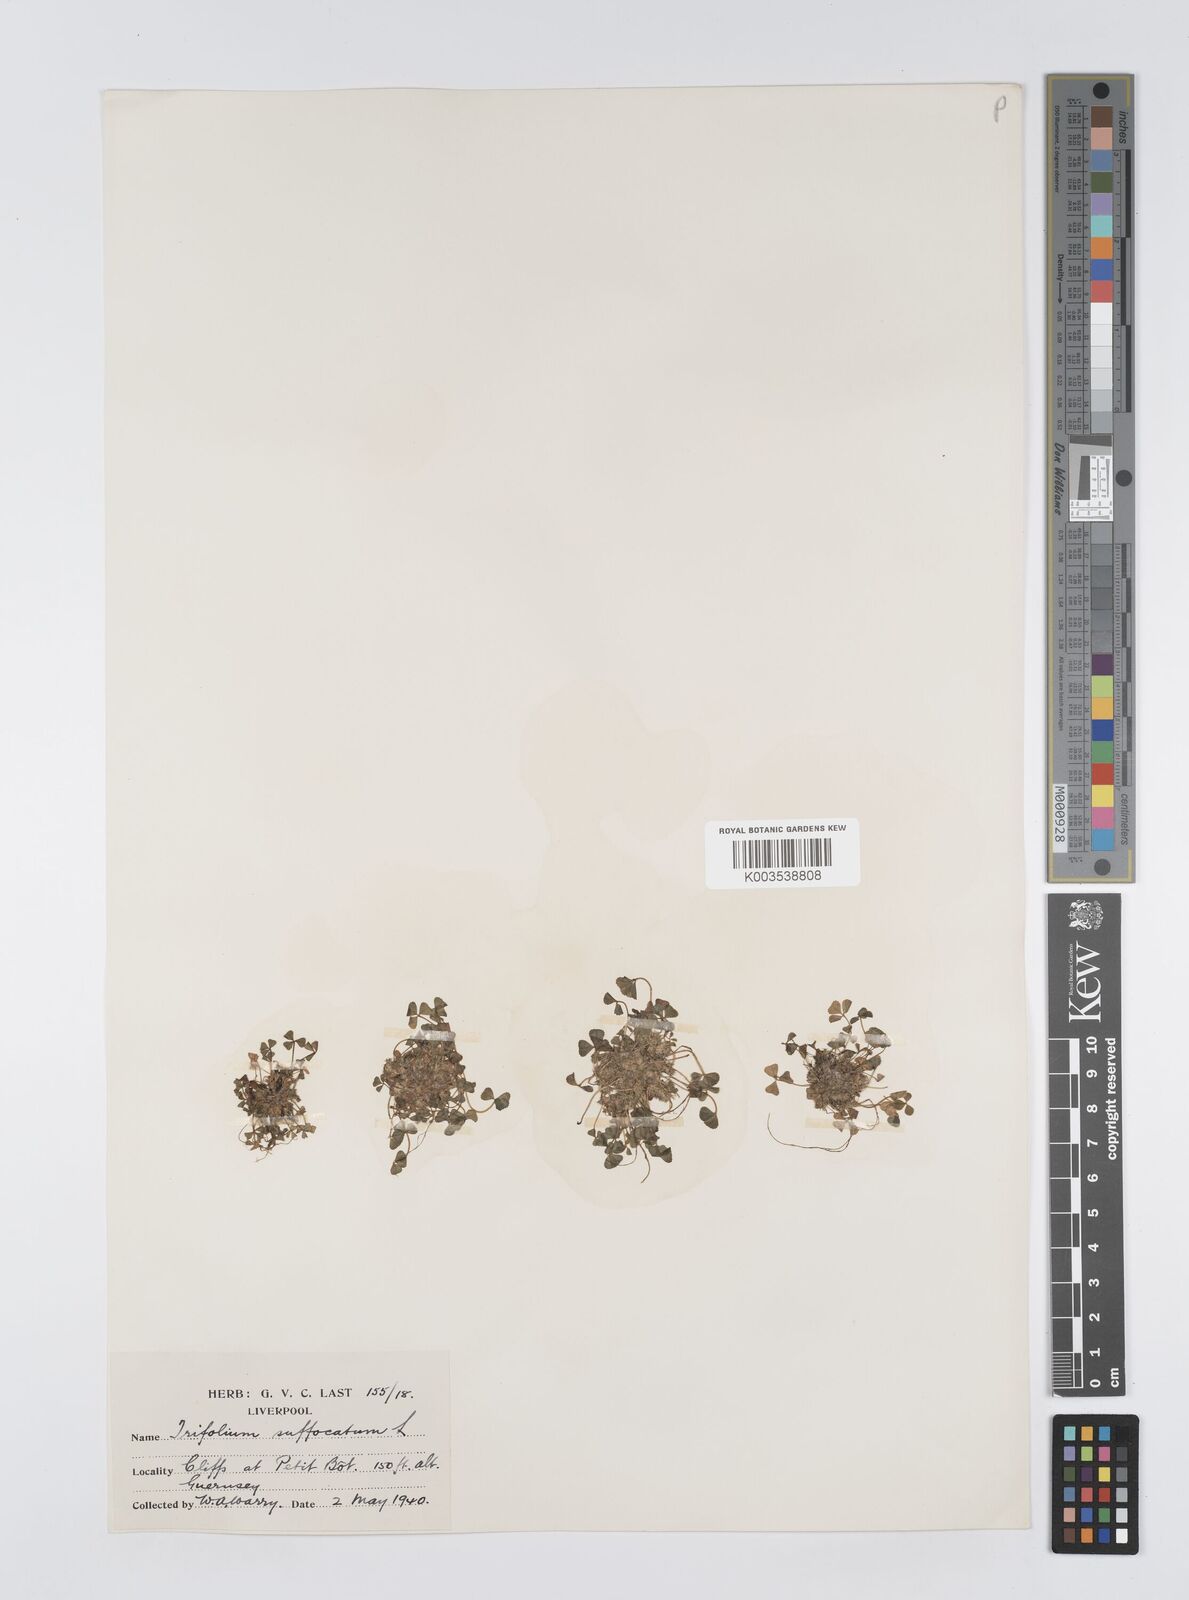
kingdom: Plantae
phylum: Tracheophyta
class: Magnoliopsida
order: Fabales
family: Fabaceae
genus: Trifolium
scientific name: Trifolium suffocatum
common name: Suffocated clover
